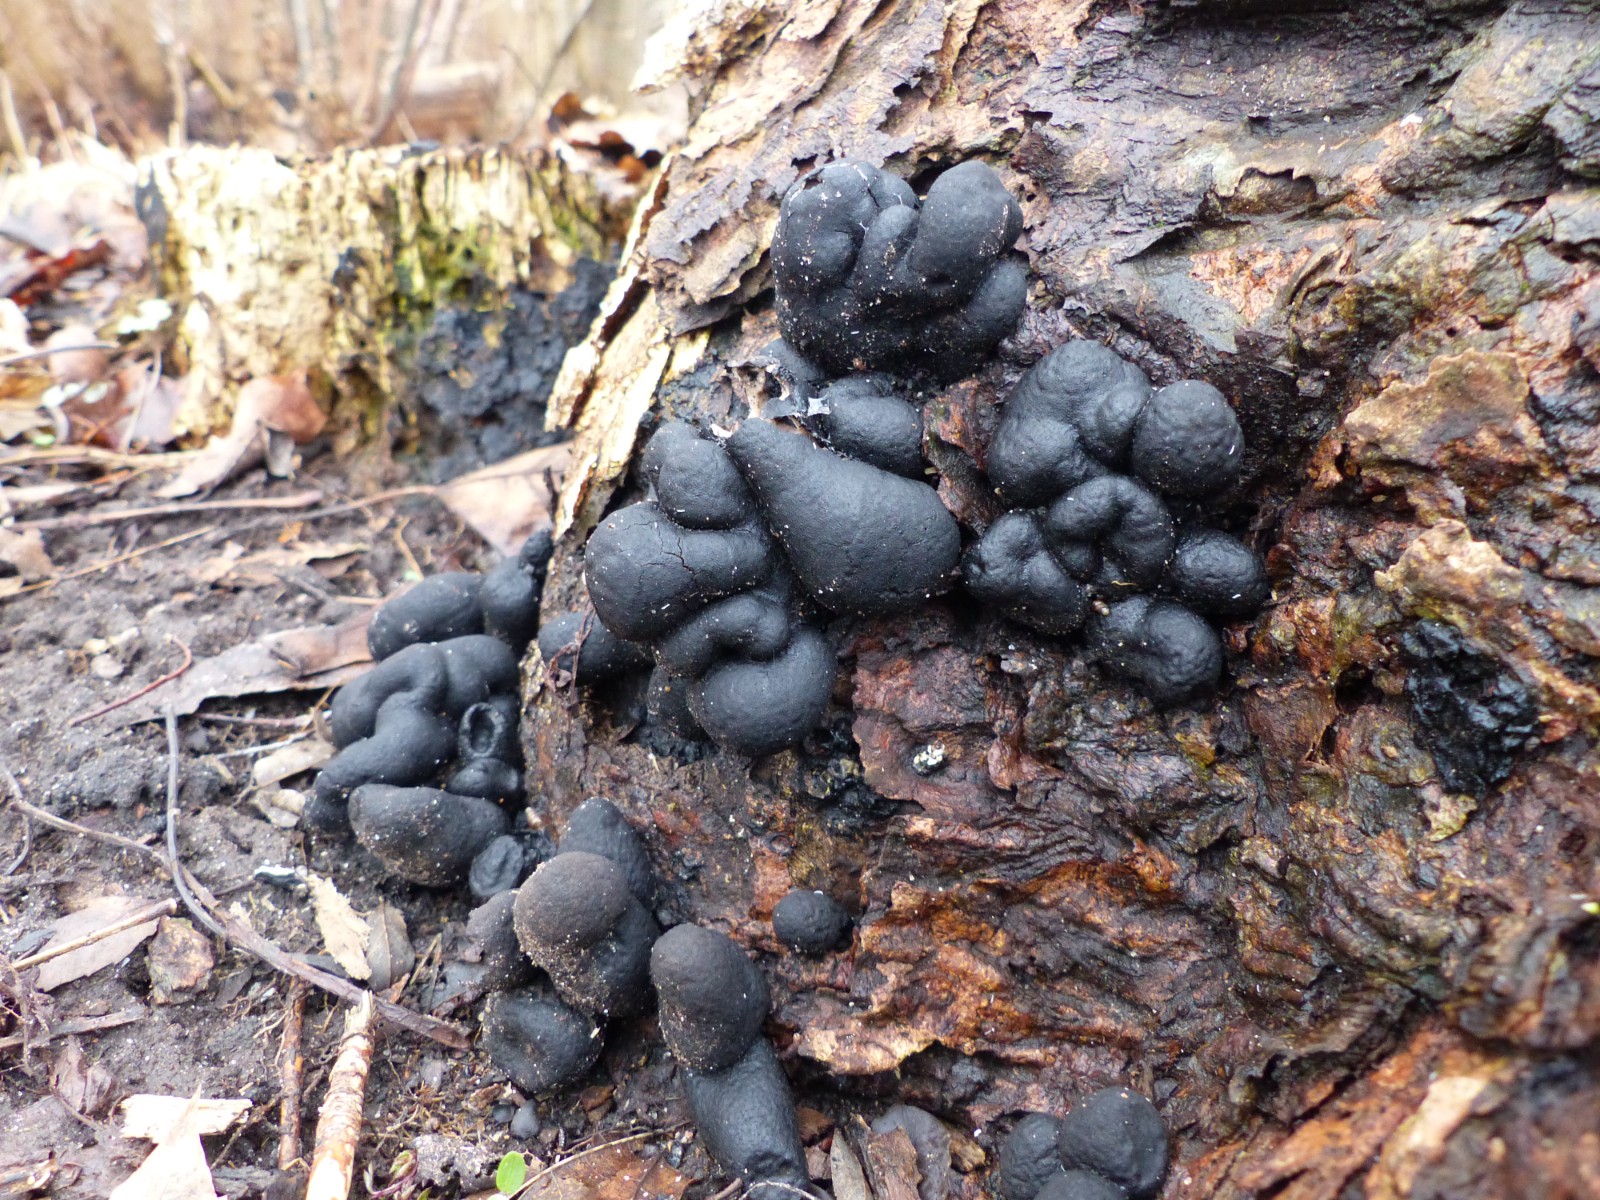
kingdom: Fungi
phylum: Ascomycota
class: Sordariomycetes
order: Xylariales
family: Xylariaceae
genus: Xylaria
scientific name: Xylaria polymorpha
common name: kølle-stødsvamp
